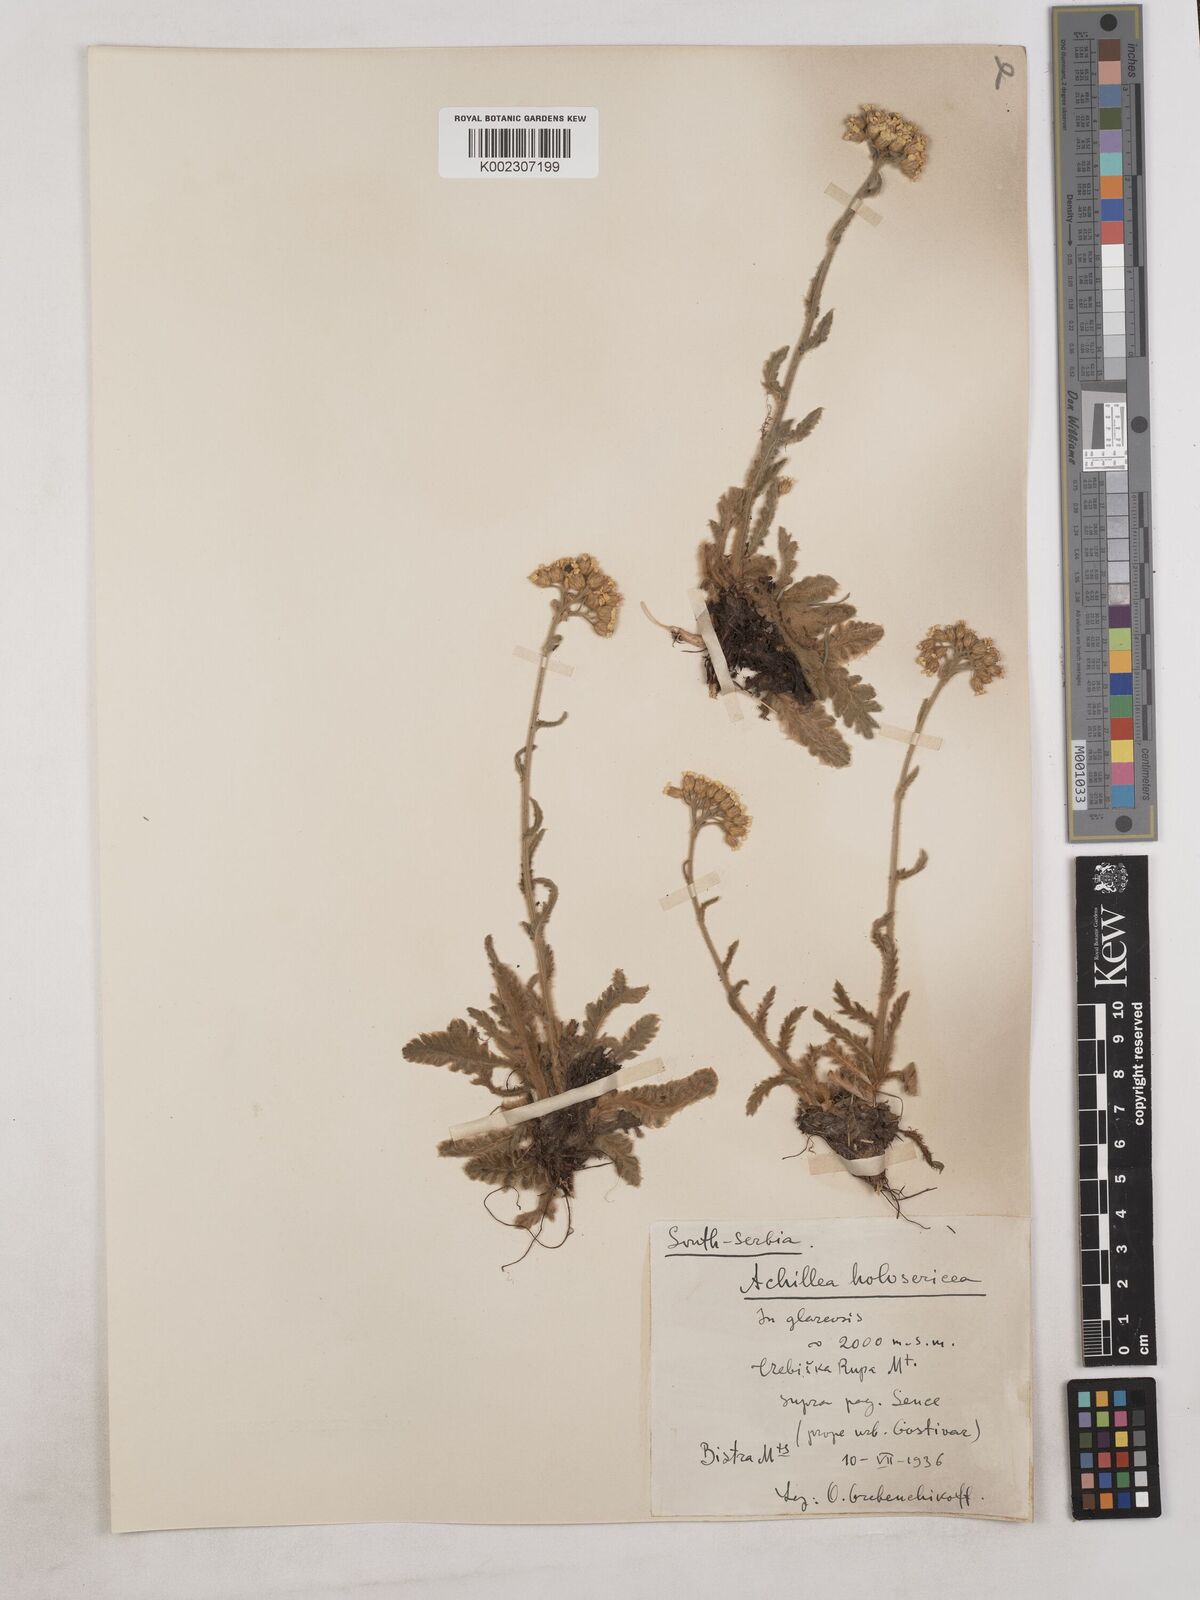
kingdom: Plantae
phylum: Tracheophyta
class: Magnoliopsida
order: Asterales
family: Asteraceae
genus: Achillea
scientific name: Achillea holosericea
